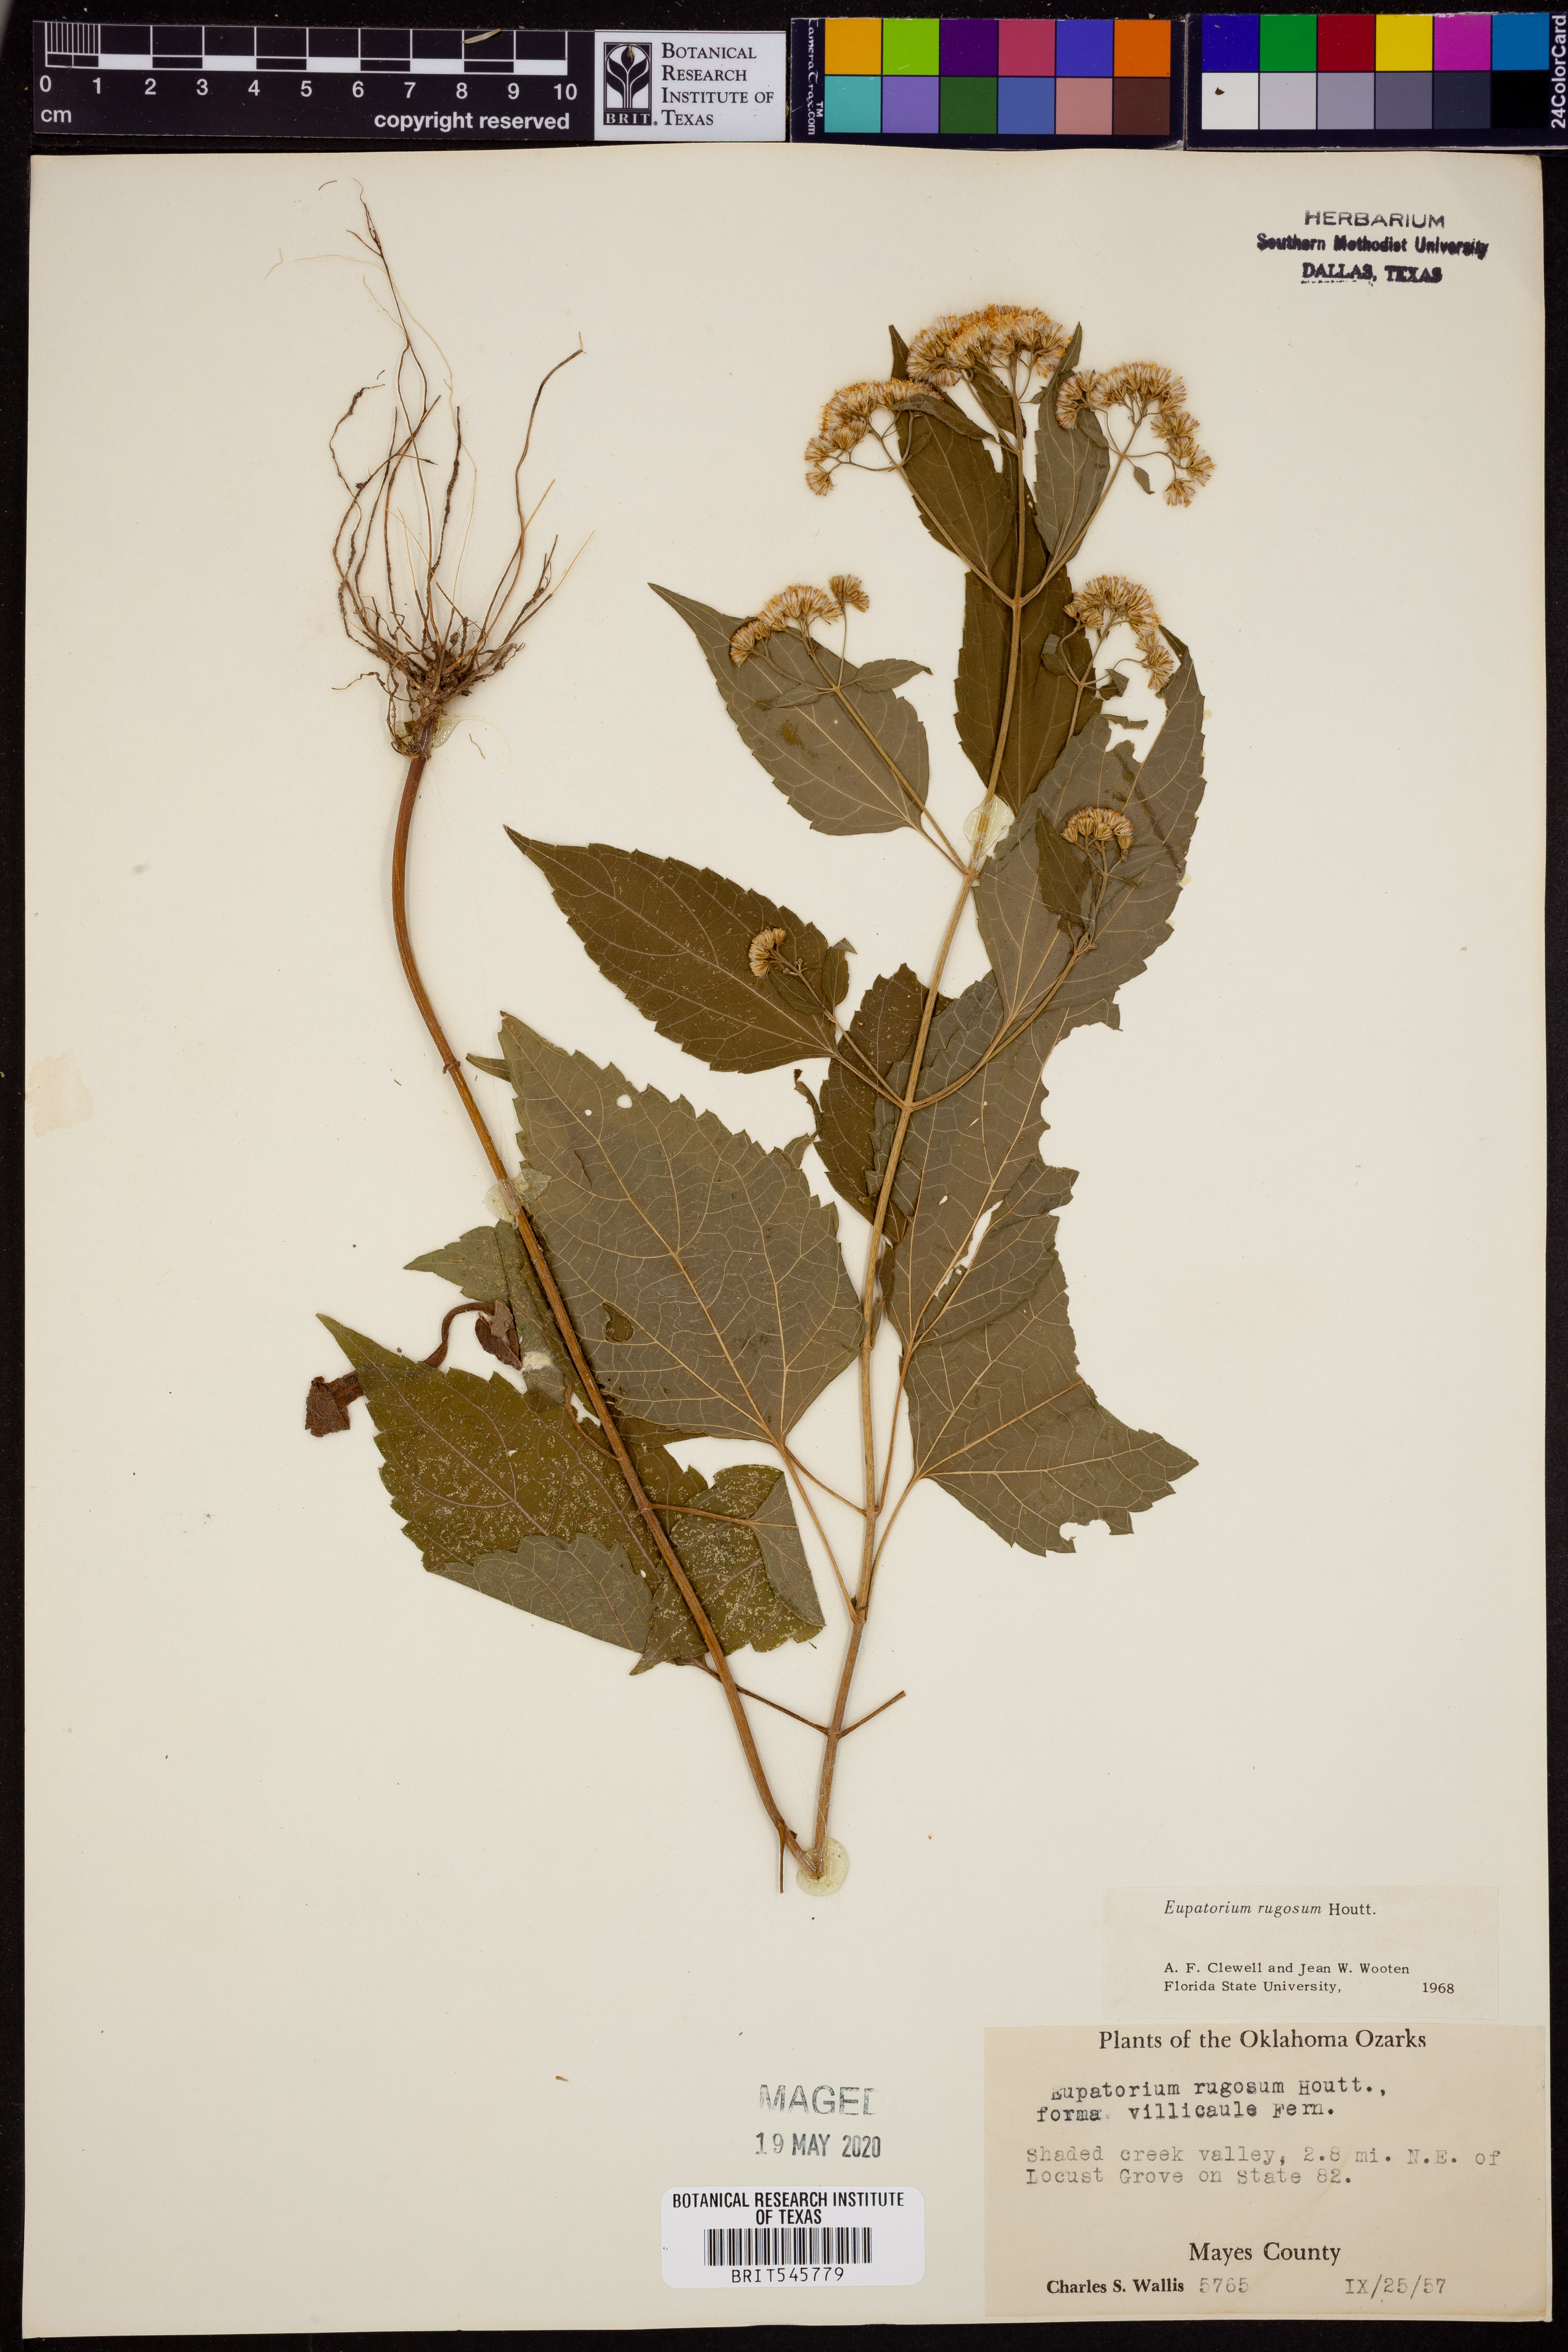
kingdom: Plantae
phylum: Tracheophyta
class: Magnoliopsida
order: Asterales
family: Asteraceae
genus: Cronquistianthus
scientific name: Cronquistianthus bulliferus
